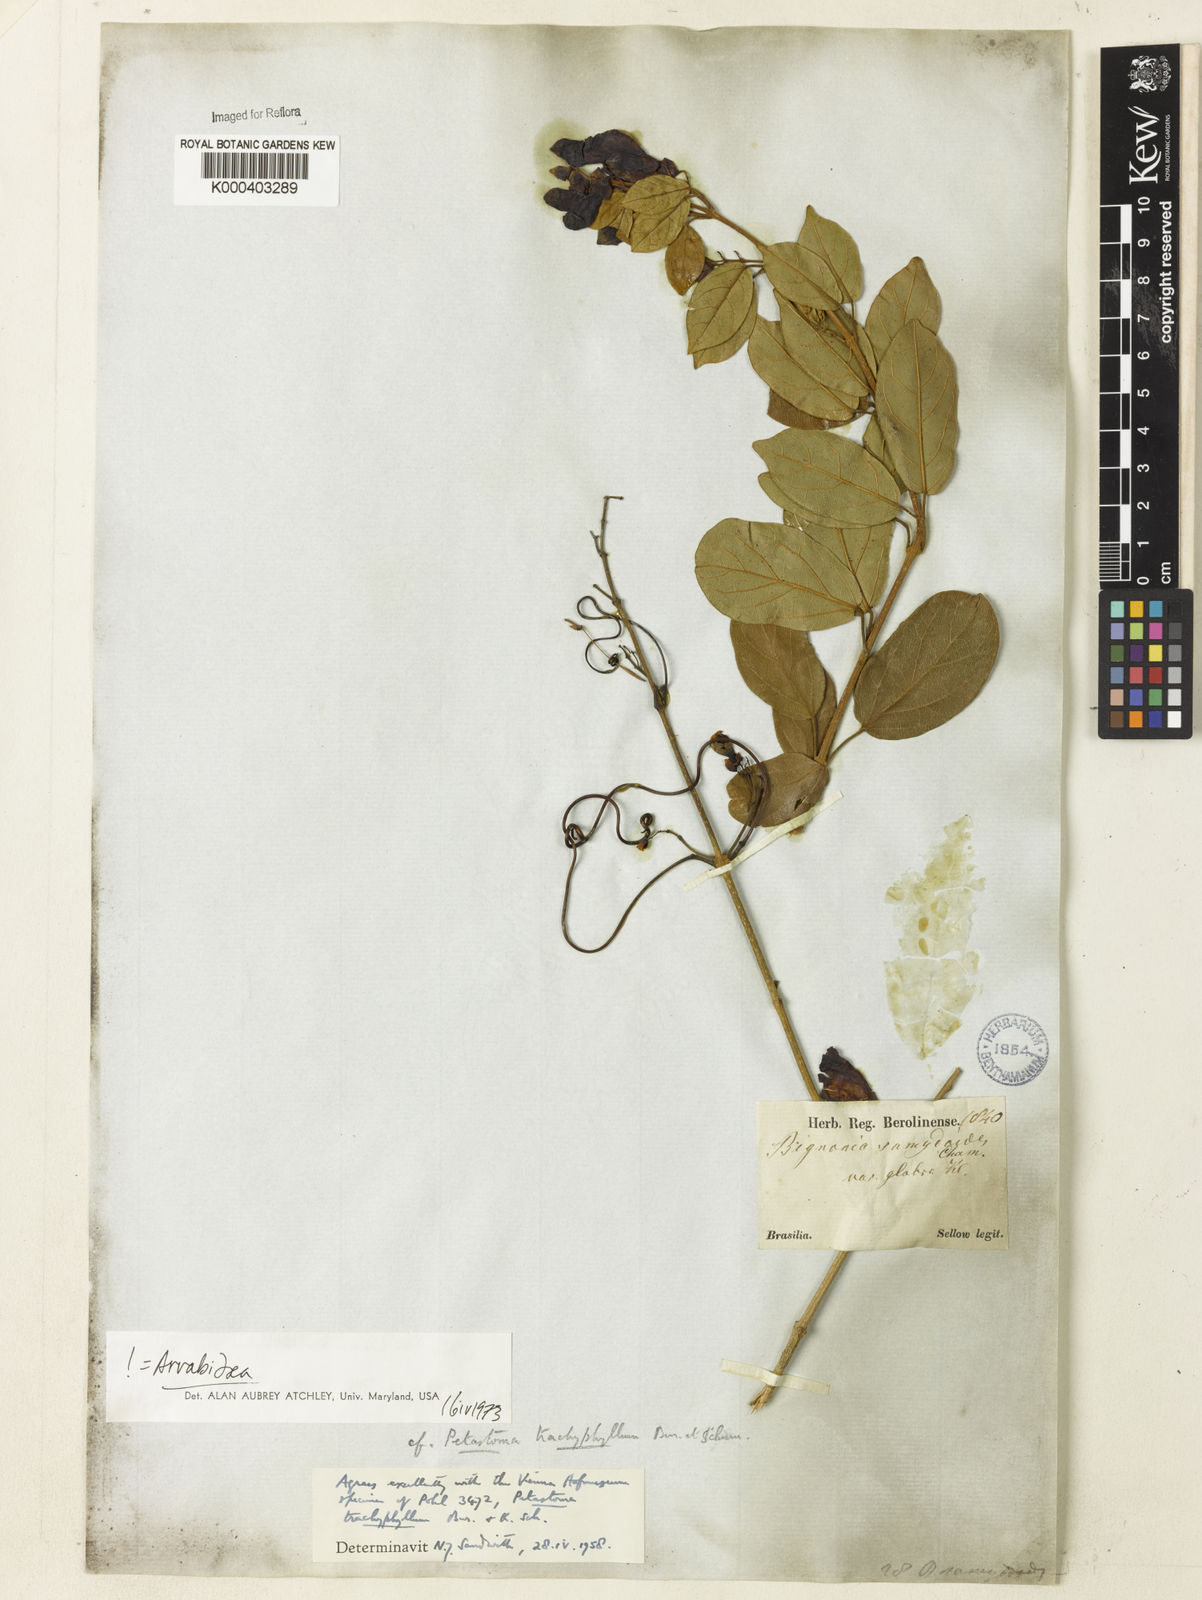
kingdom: Plantae
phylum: Tracheophyta
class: Magnoliopsida
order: Lamiales
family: Bignoniaceae
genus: Fridericia
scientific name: Fridericia trachyphylla
